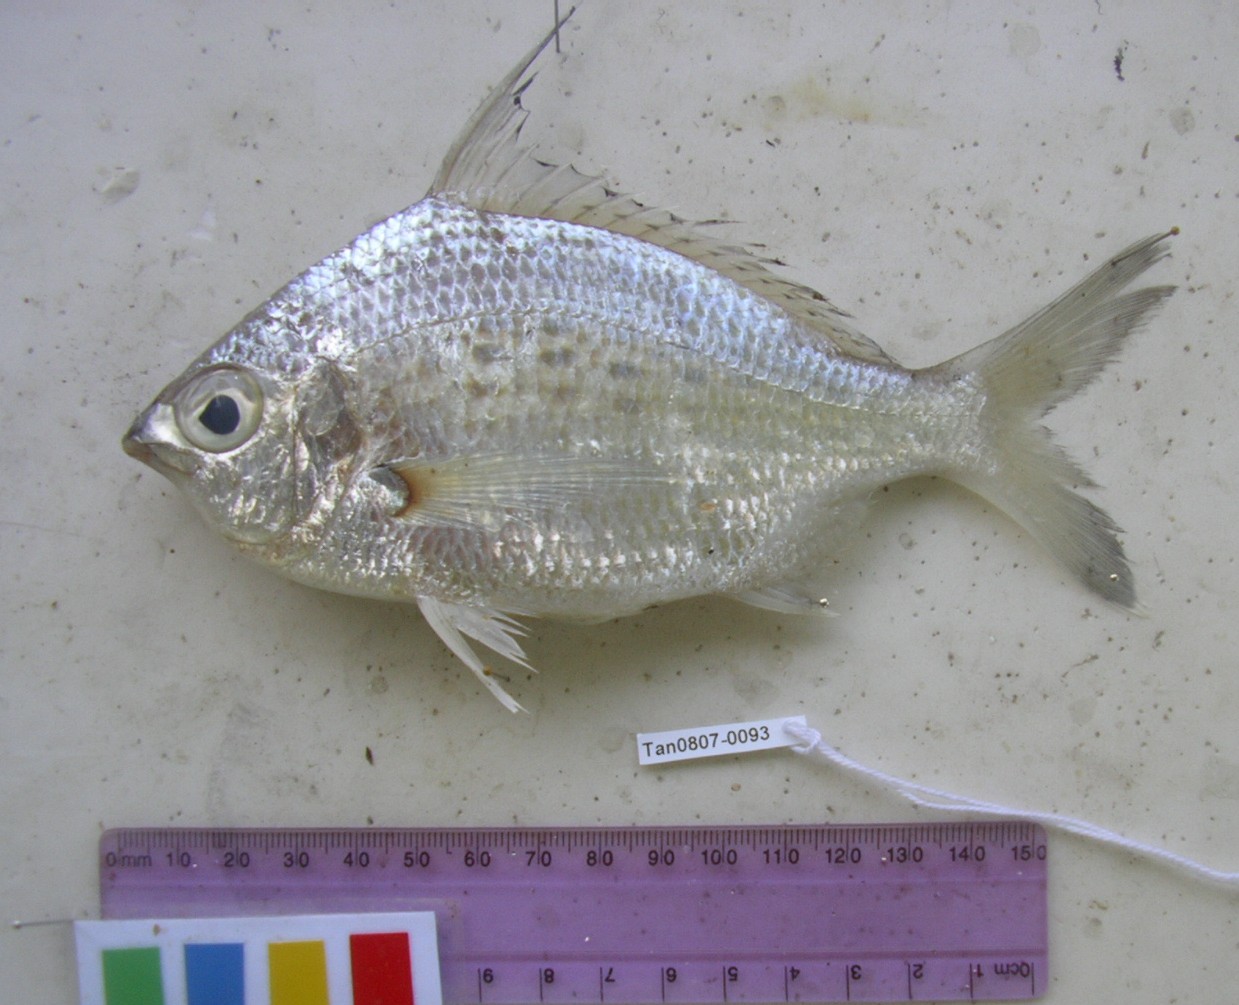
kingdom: Animalia
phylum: Chordata
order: Perciformes
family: Gerreidae
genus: Gerres
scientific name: Gerres filamentosus
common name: Whipfin silverbiddy
